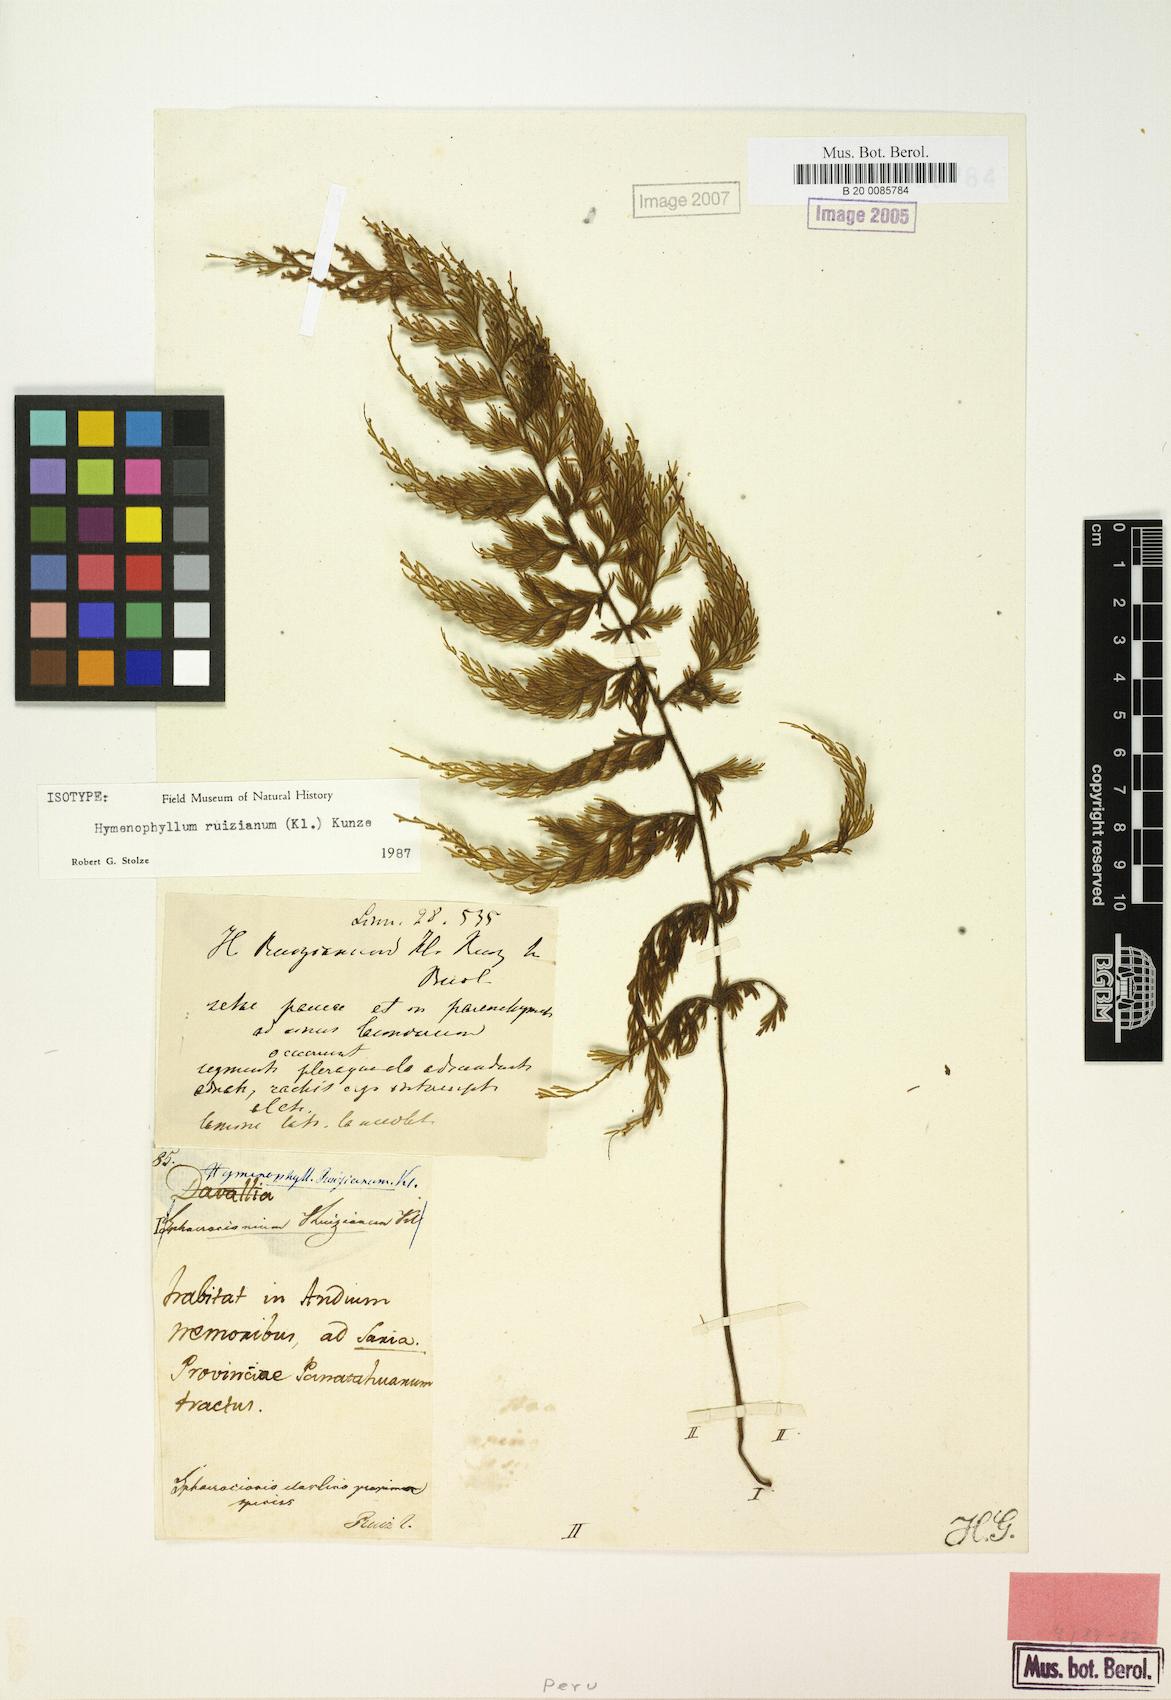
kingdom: Plantae
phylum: Tracheophyta
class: Polypodiopsida
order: Hymenophyllales
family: Hymenophyllaceae
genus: Hymenophyllum
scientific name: Hymenophyllum ruizianum
